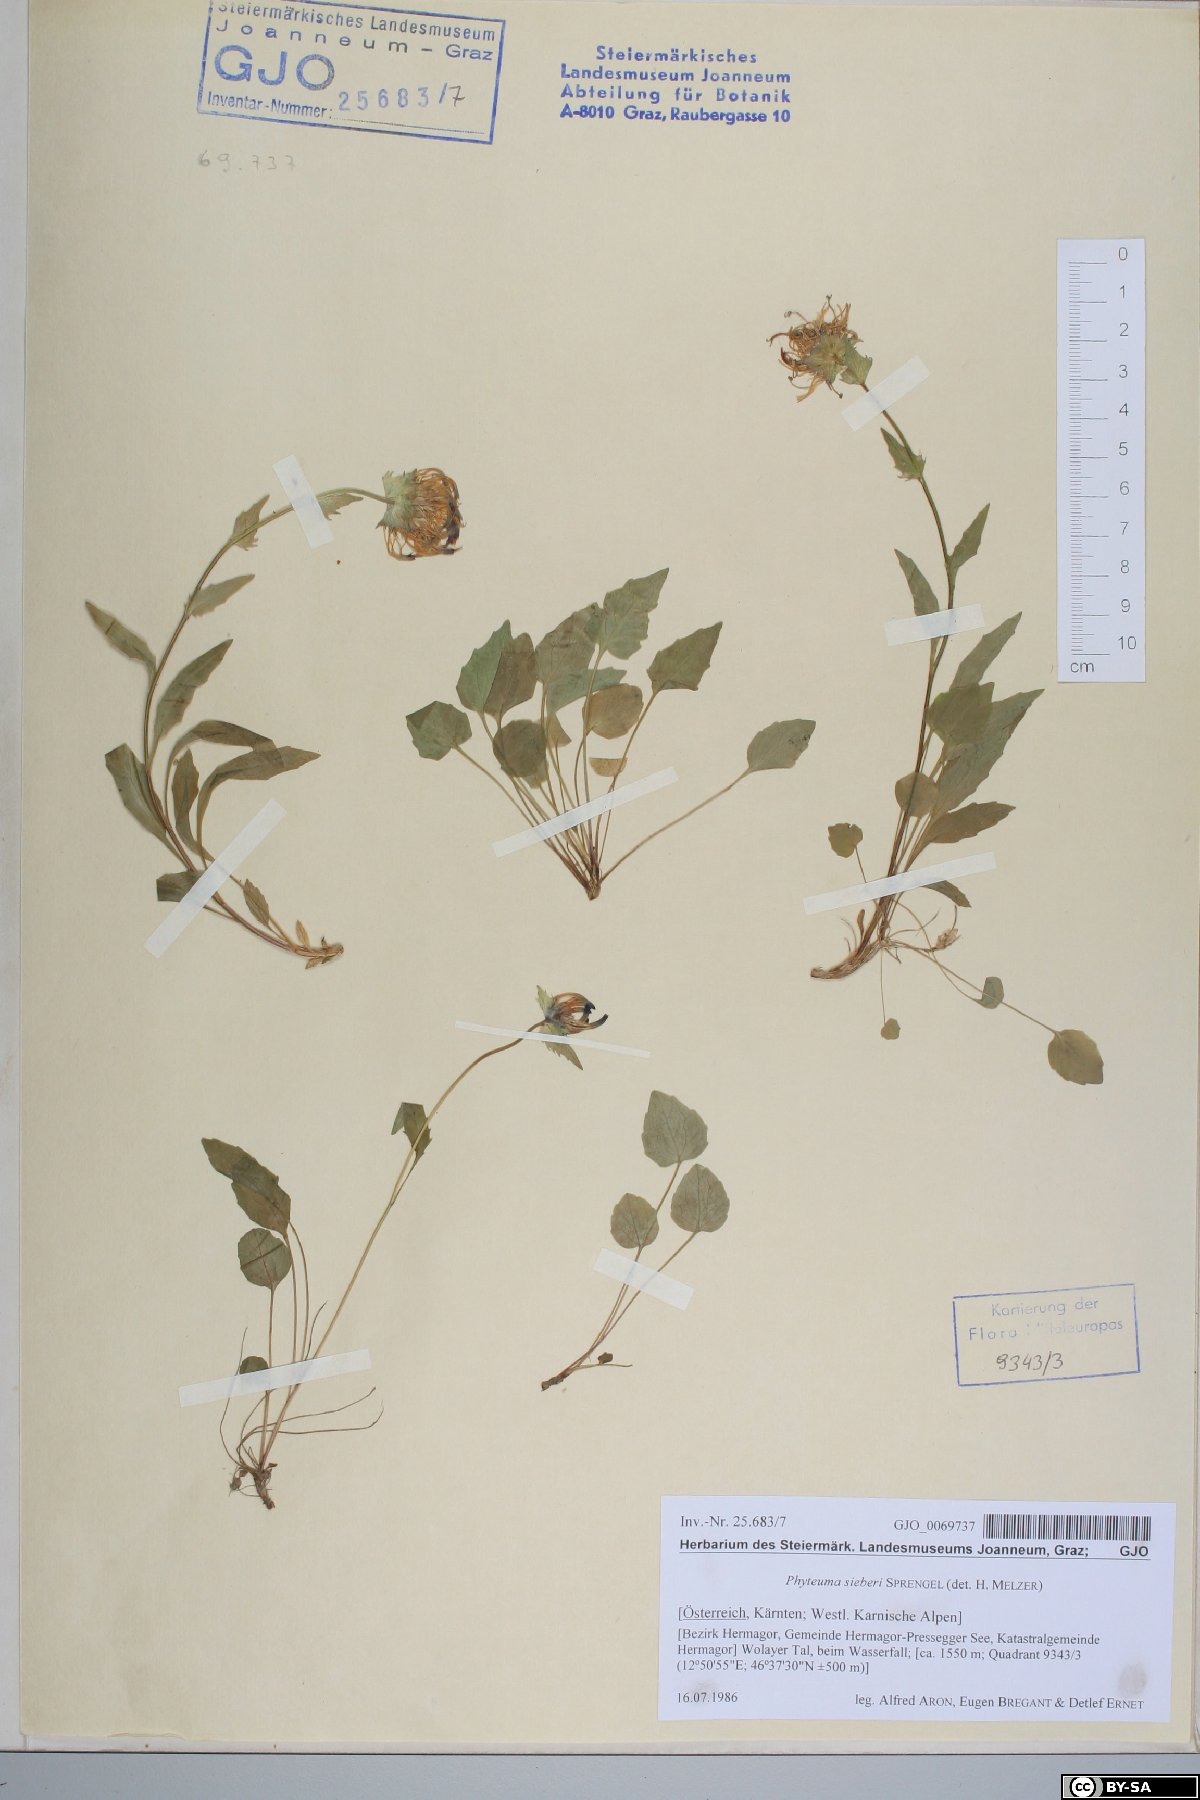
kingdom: Plantae
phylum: Tracheophyta
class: Magnoliopsida
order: Asterales
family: Campanulaceae
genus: Phyteuma
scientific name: Phyteuma sieberi
